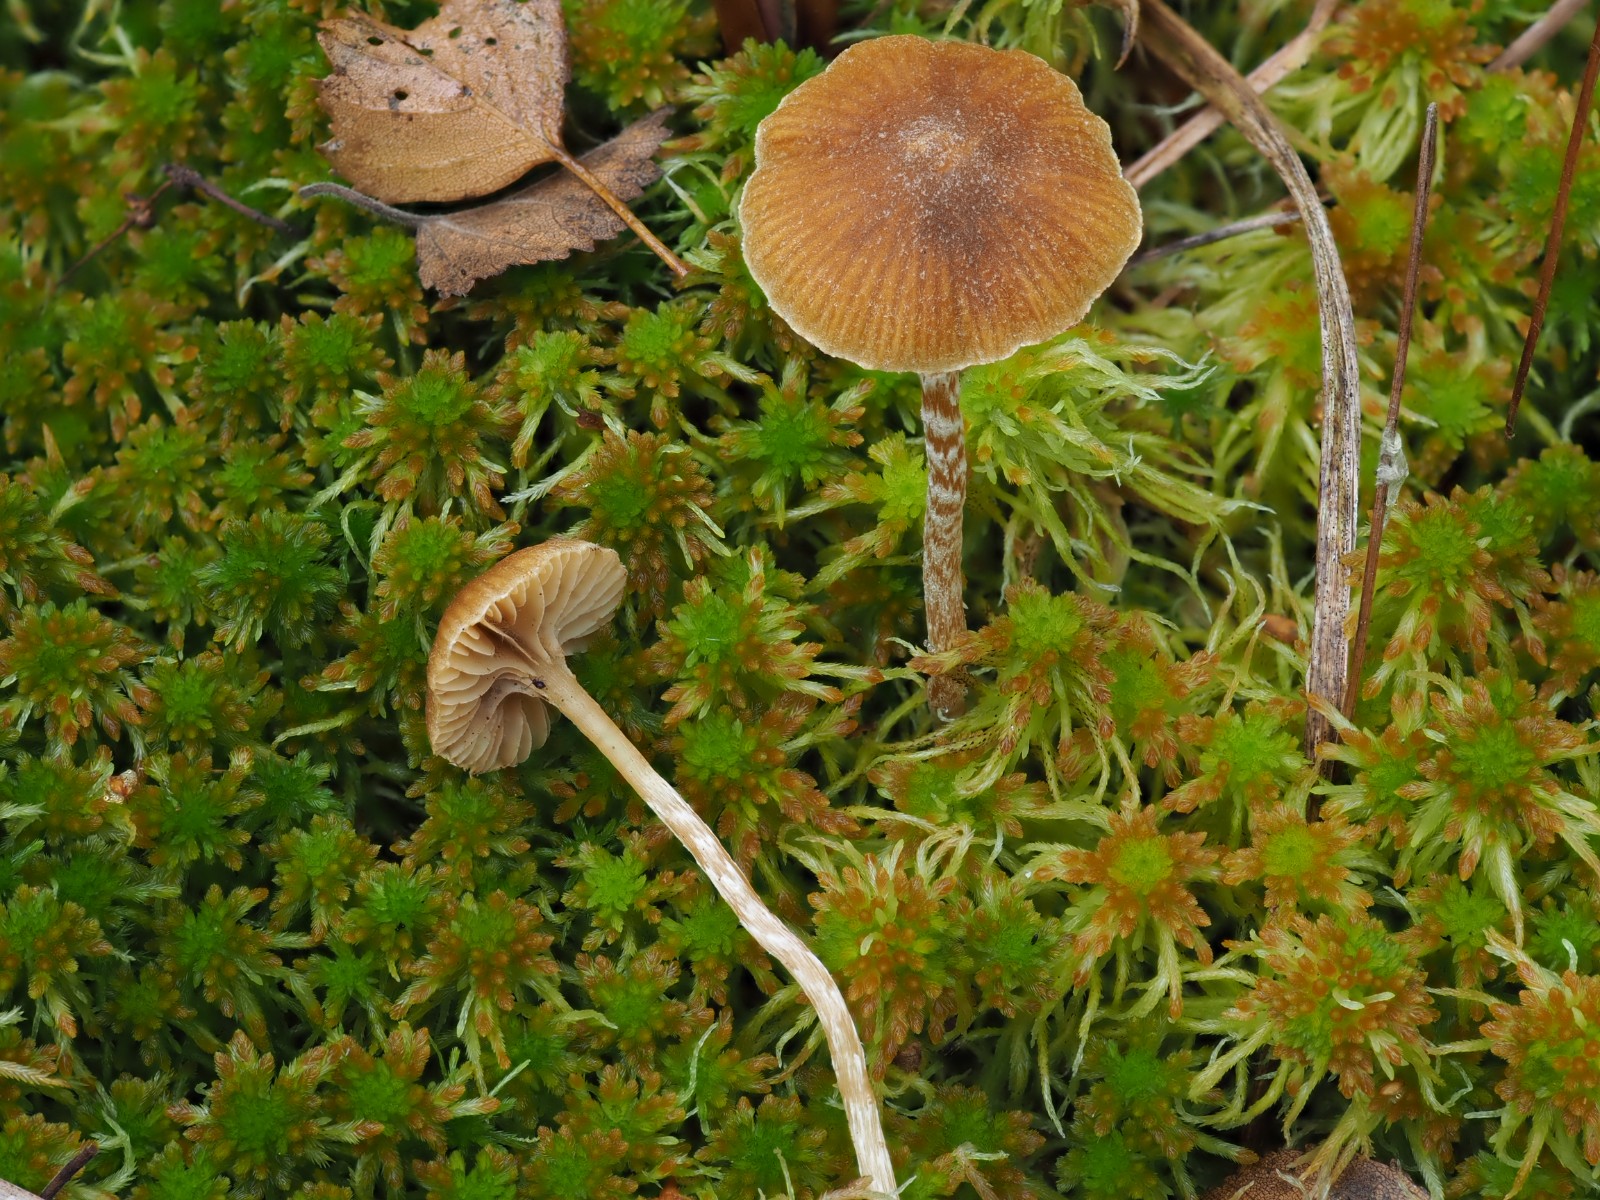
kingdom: Fungi
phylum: Basidiomycota
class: Agaricomycetes
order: Agaricales
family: Hymenogastraceae
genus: Galerina
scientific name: Galerina paludosa
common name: mose-hjelmhat
